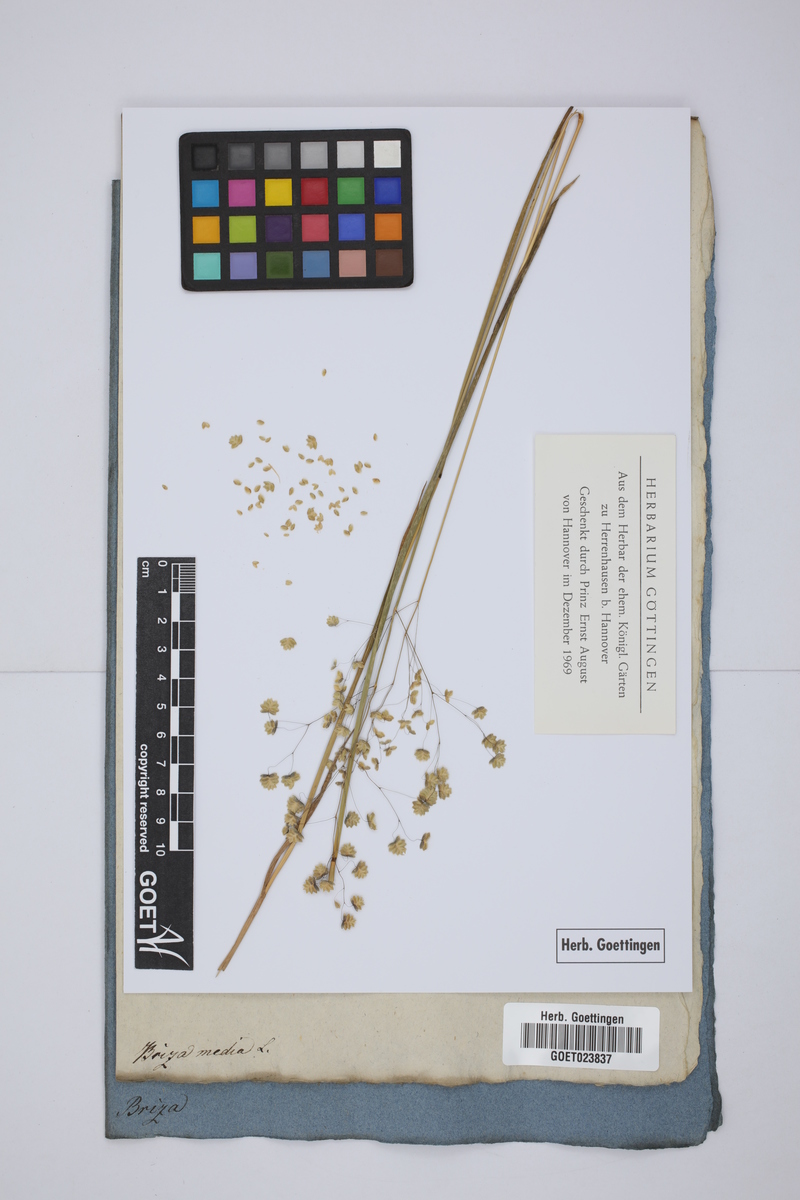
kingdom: Plantae
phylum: Tracheophyta
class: Liliopsida
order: Poales
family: Poaceae
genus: Briza
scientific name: Briza media
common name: Quaking grass
